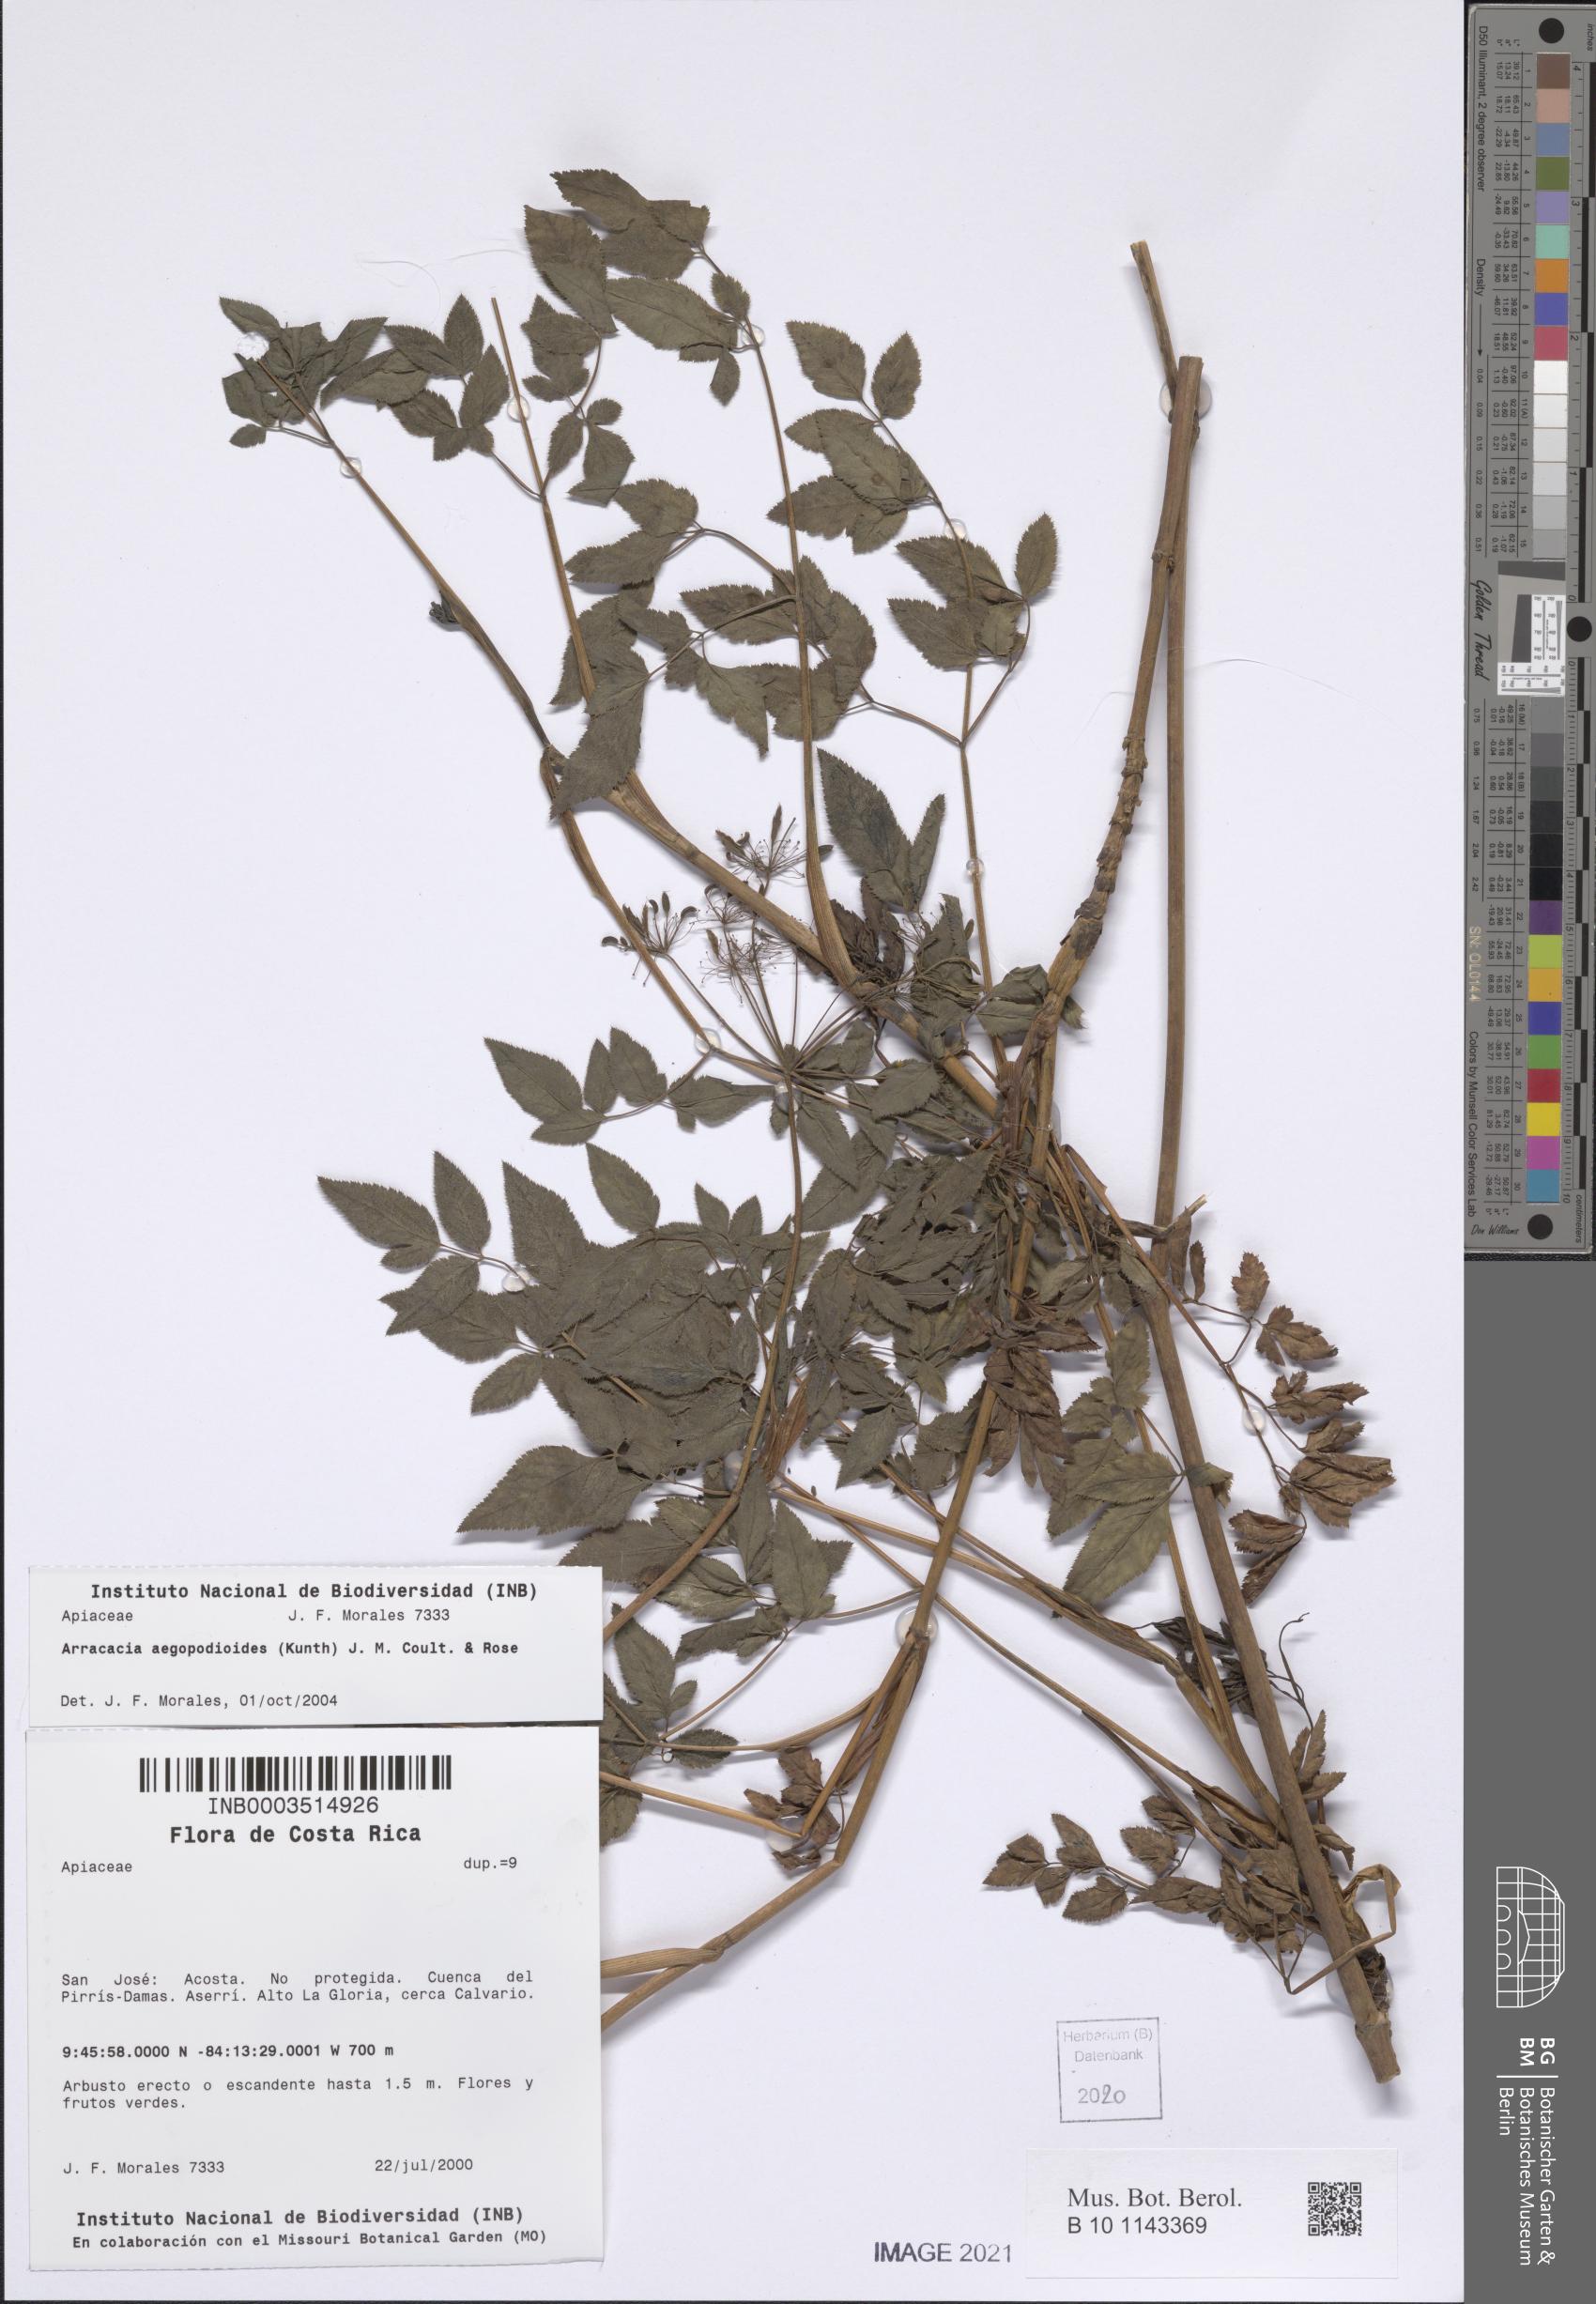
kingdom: Plantae
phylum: Tracheophyta
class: Magnoliopsida
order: Apiales
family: Apiaceae
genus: Arracacia
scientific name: Arracacia aegopodioides
